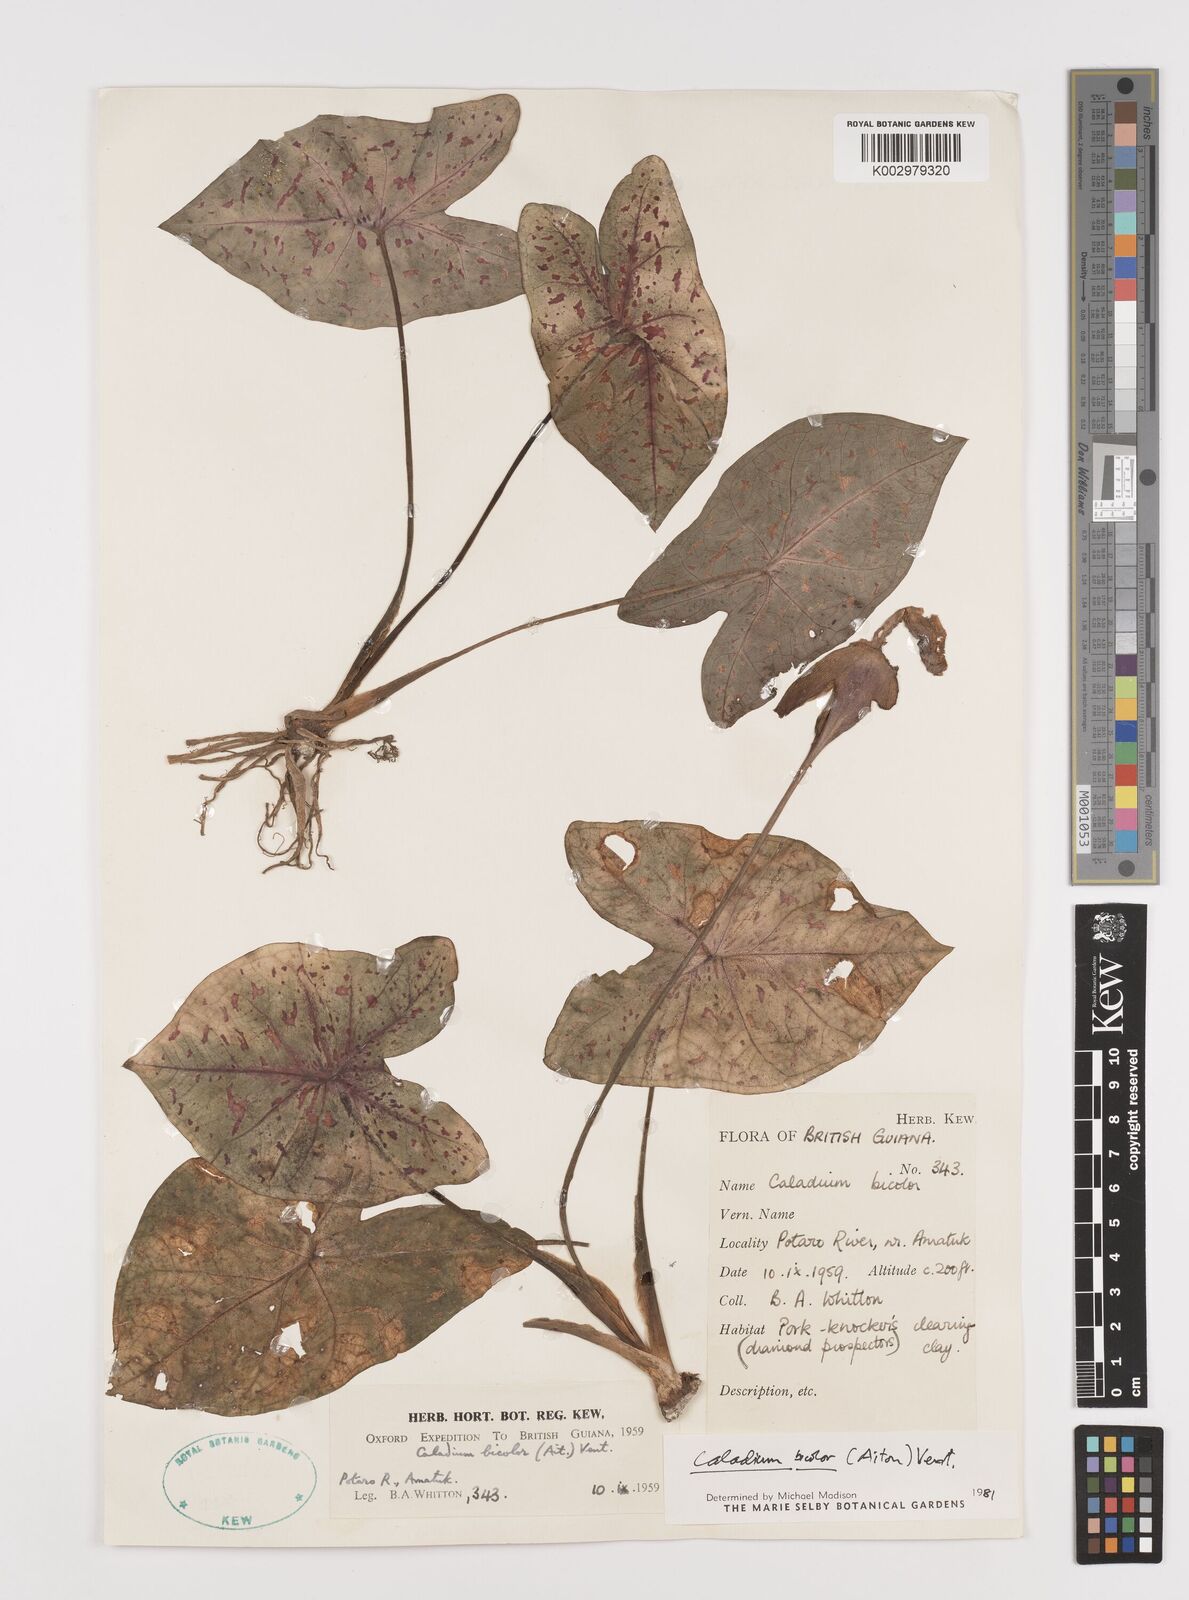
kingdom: Plantae
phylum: Tracheophyta
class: Liliopsida
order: Alismatales
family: Araceae
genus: Caladium
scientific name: Caladium bicolor
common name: Artist's pallet
